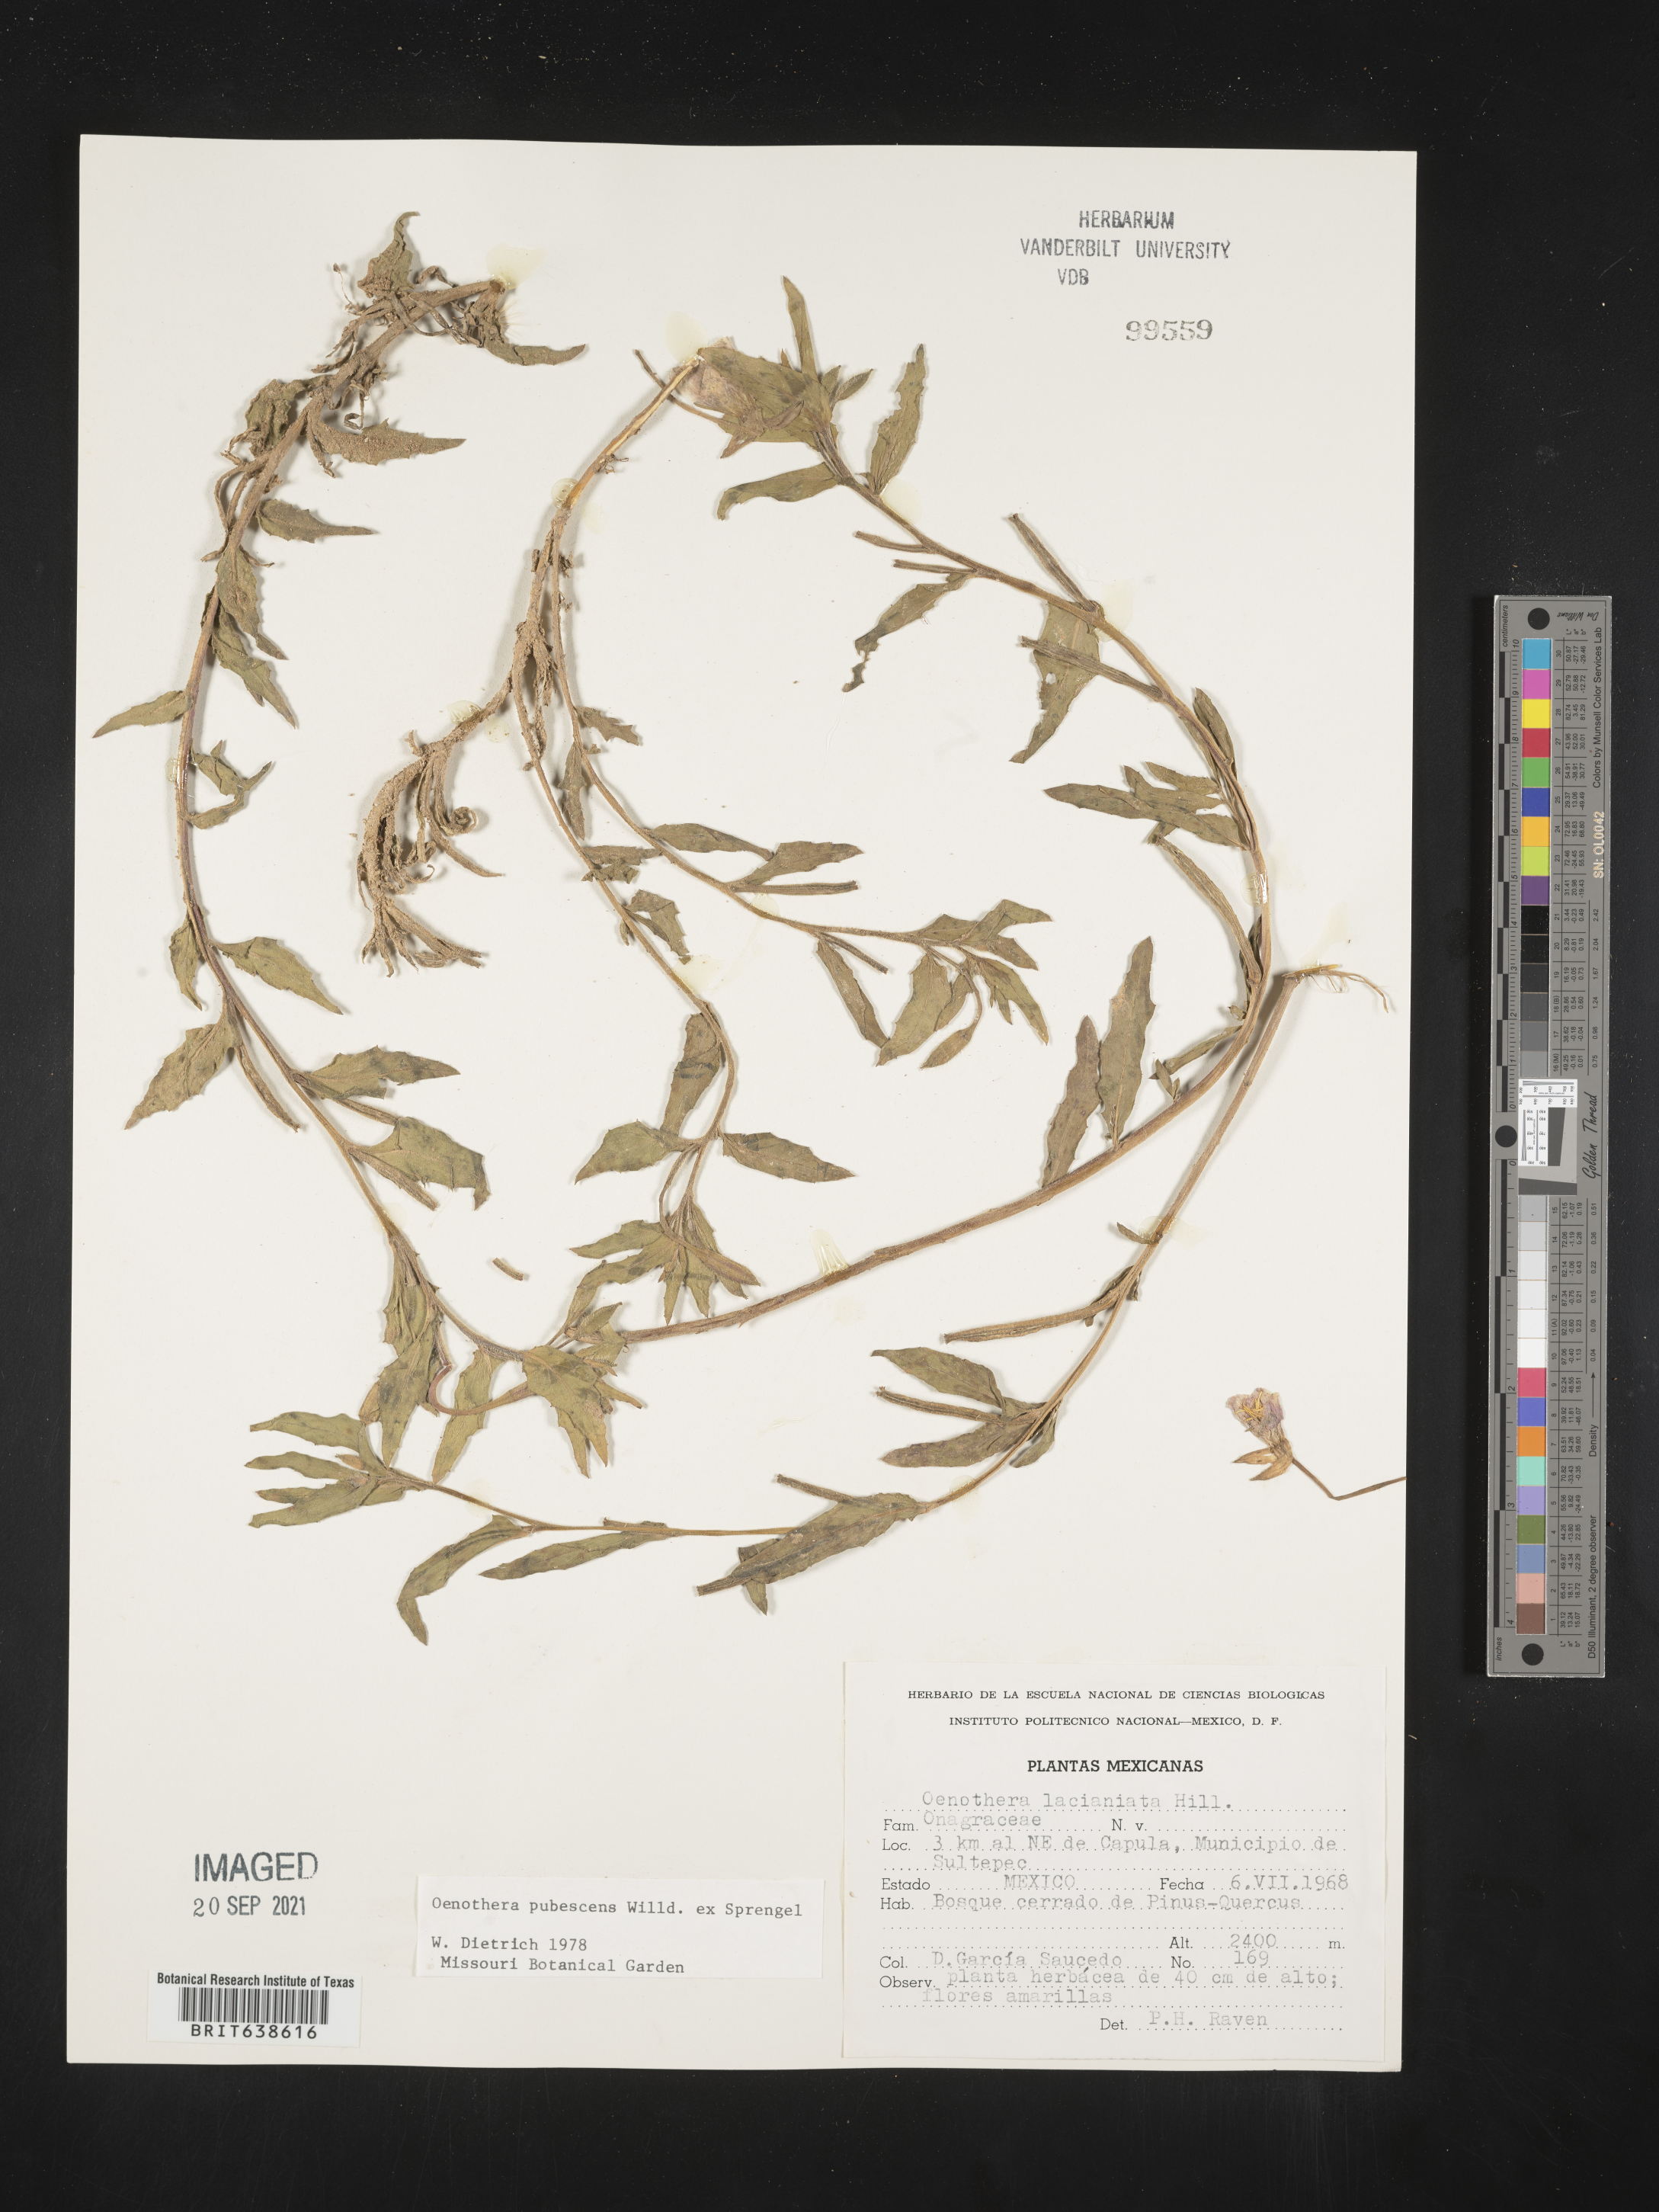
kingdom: Plantae
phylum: Tracheophyta
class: Magnoliopsida
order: Myrtales
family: Onagraceae
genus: Oenothera
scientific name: Oenothera
